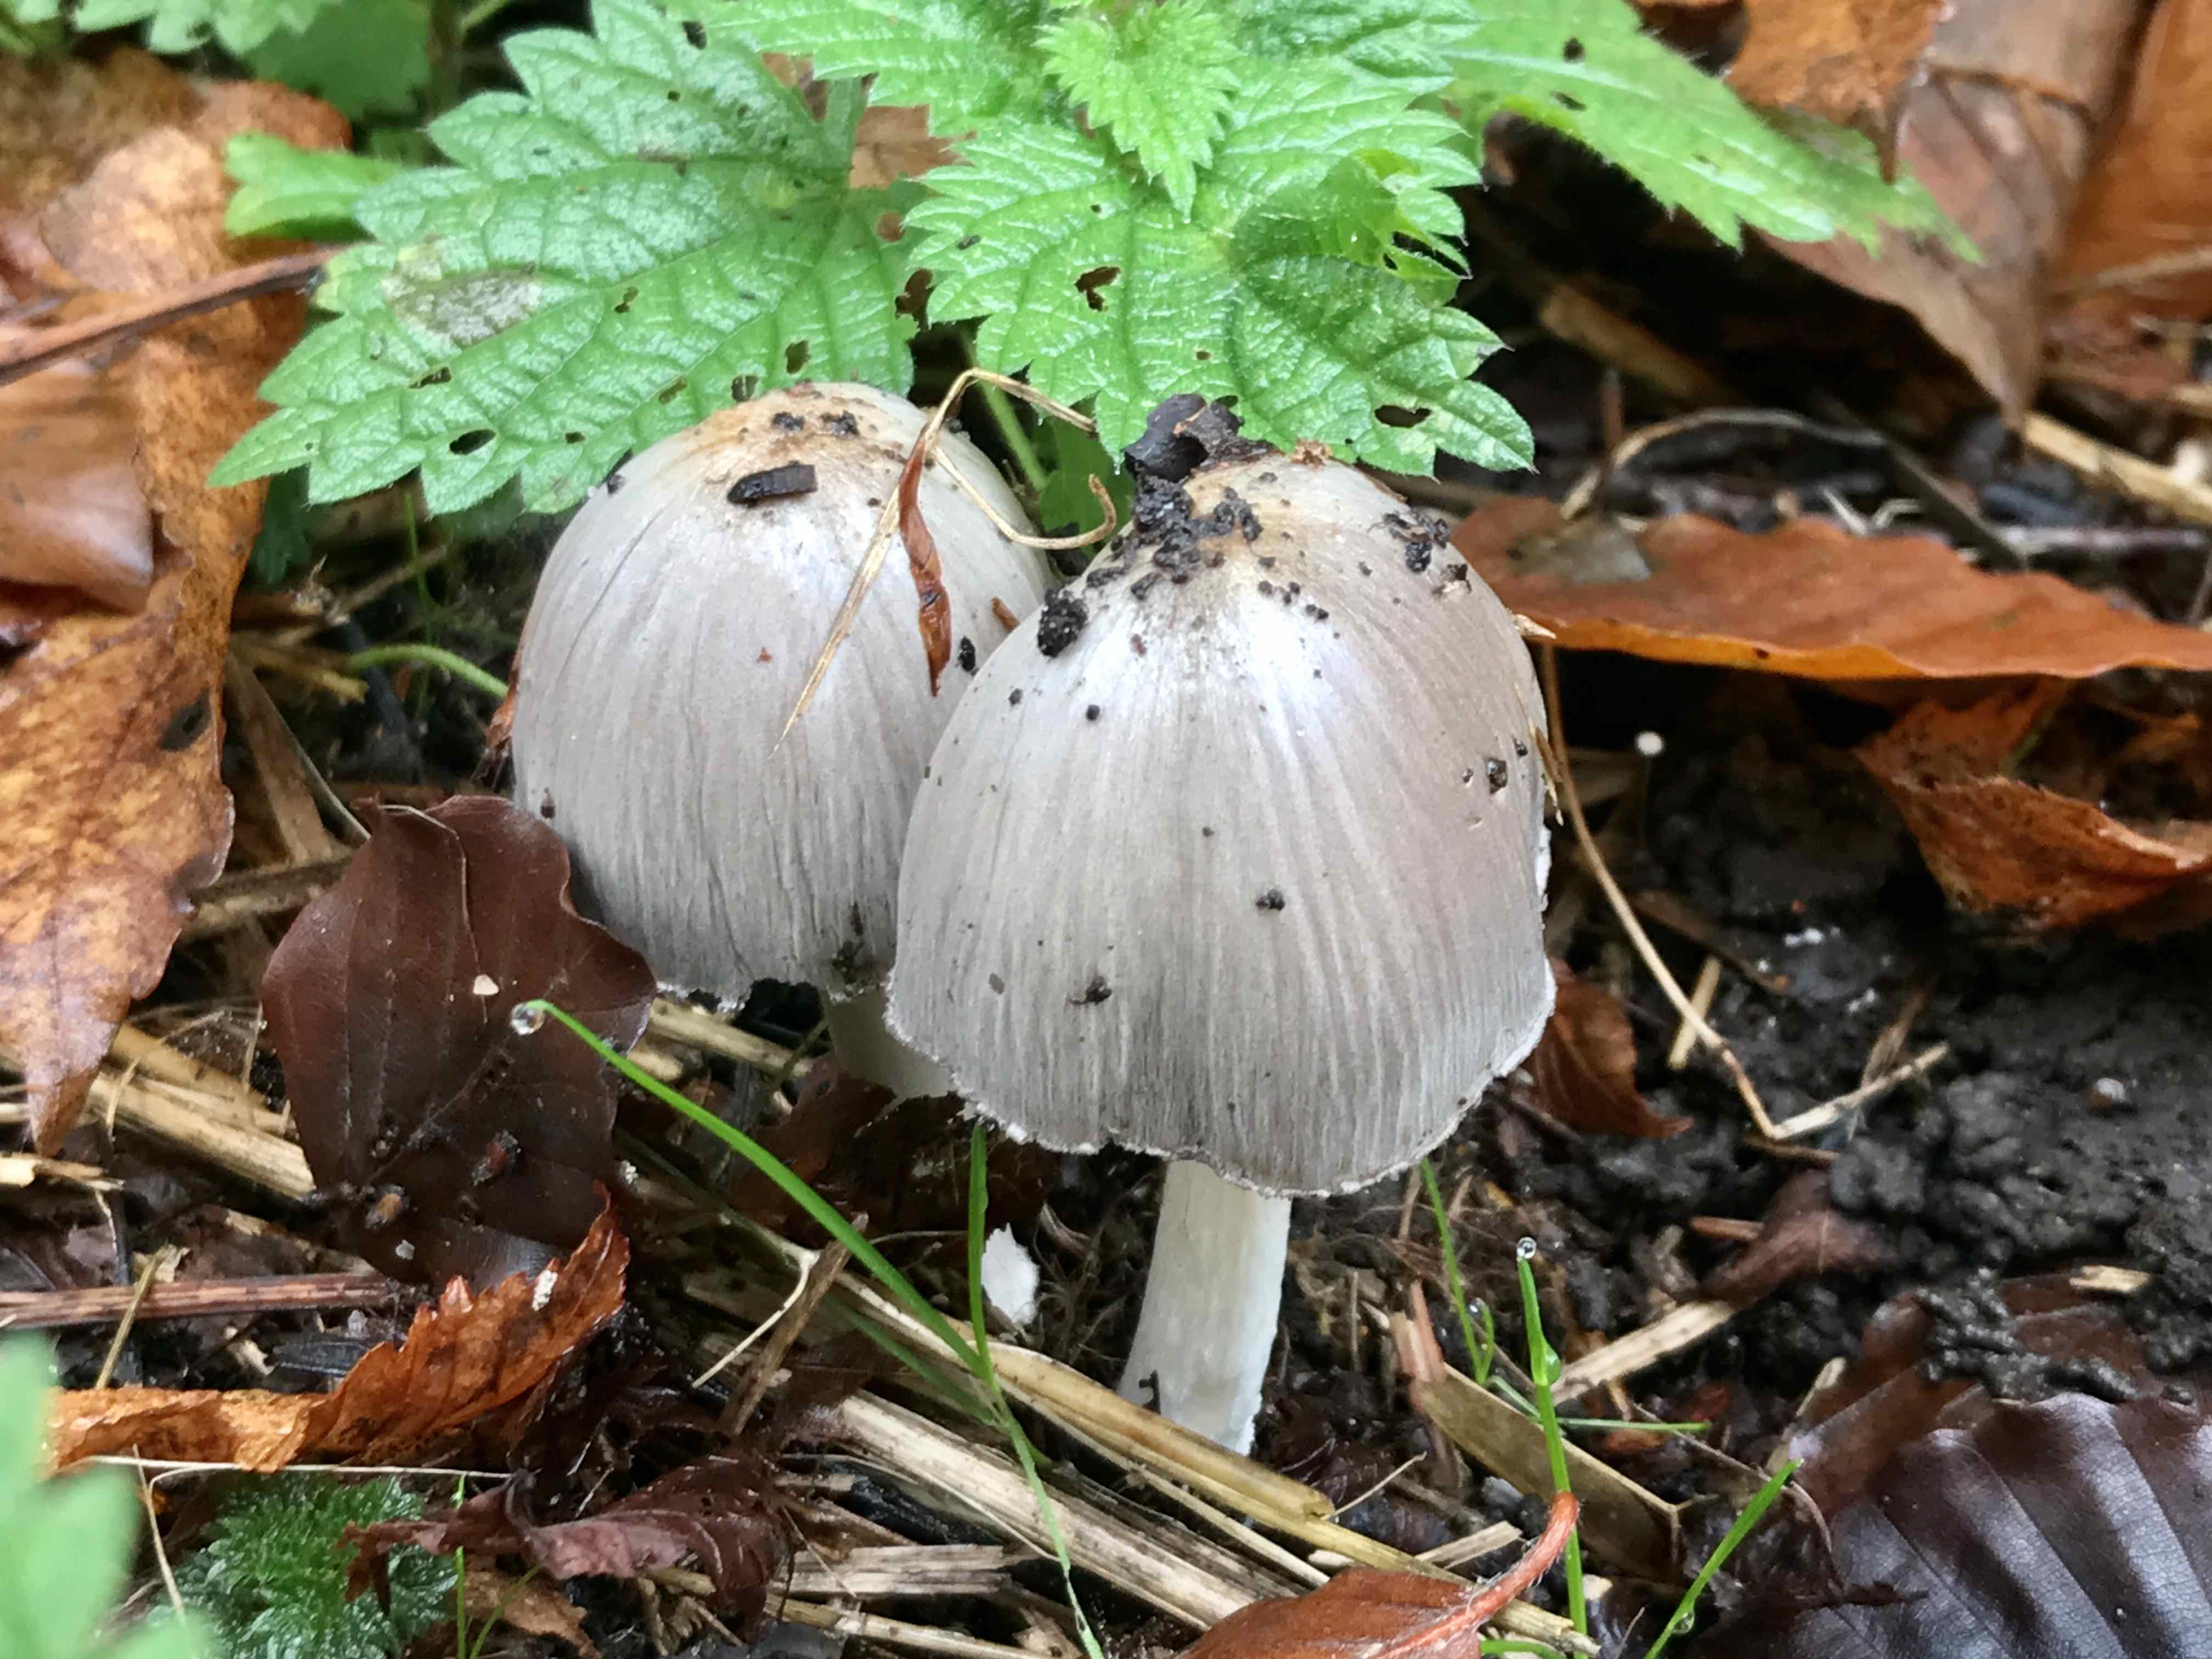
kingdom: Fungi
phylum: Basidiomycota
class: Agaricomycetes
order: Agaricales
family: Psathyrellaceae
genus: Coprinopsis
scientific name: Coprinopsis atramentaria
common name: almindelig blækhat
